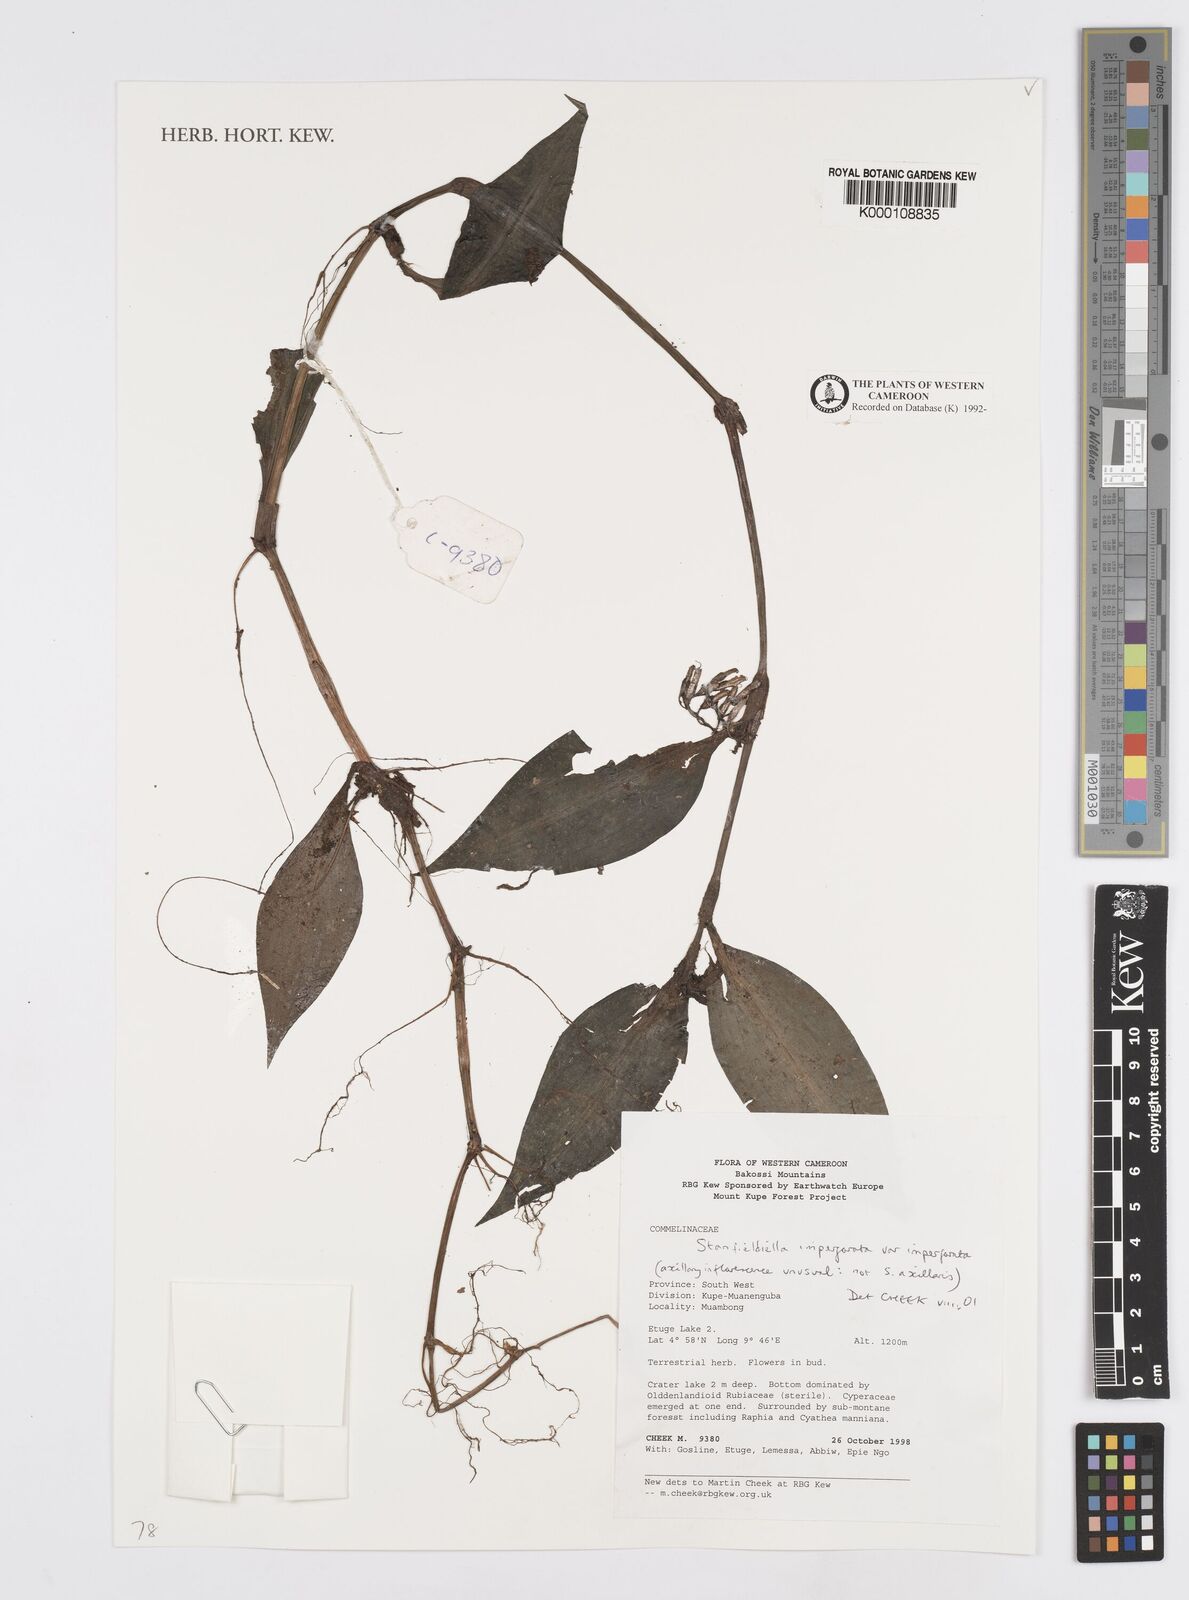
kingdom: Plantae
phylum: Tracheophyta
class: Liliopsida
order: Commelinales
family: Commelinaceae
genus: Stanfieldiella
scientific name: Stanfieldiella imperforata
